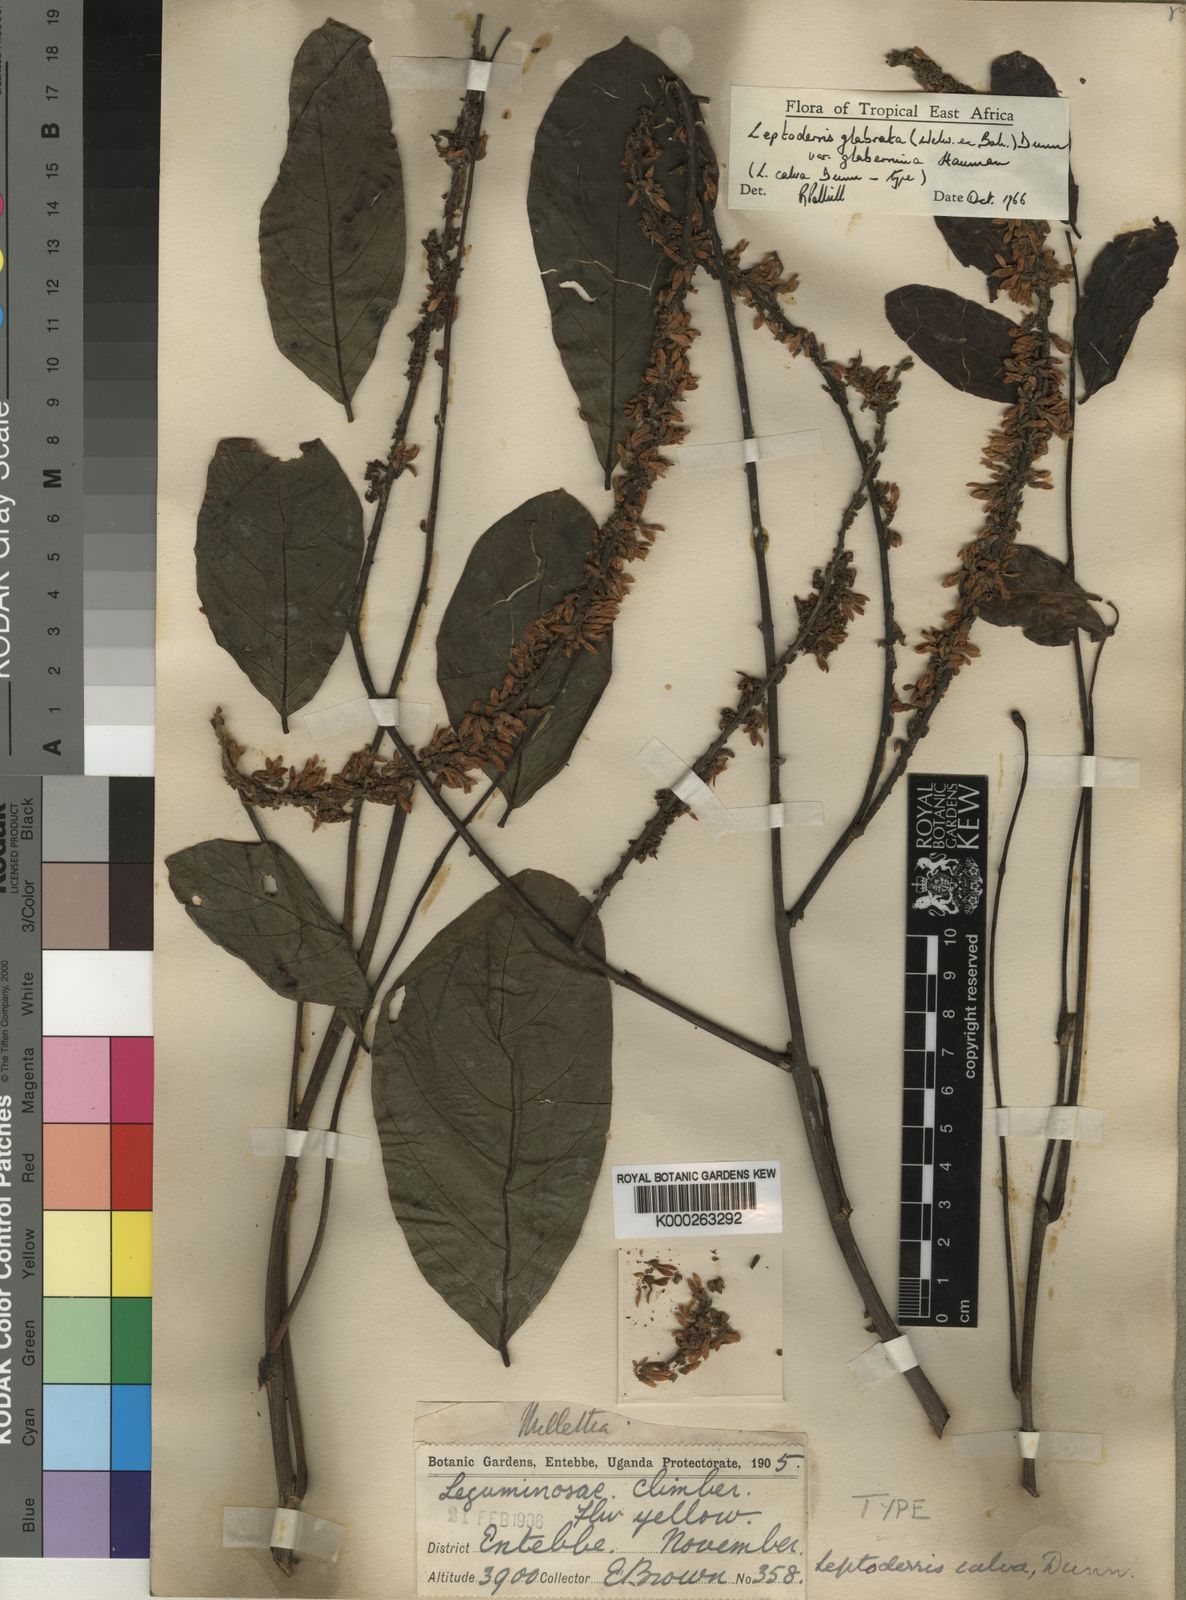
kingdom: Plantae
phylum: Tracheophyta
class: Magnoliopsida
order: Fabales
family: Fabaceae
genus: Leptoderris
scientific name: Leptoderris glabrata
